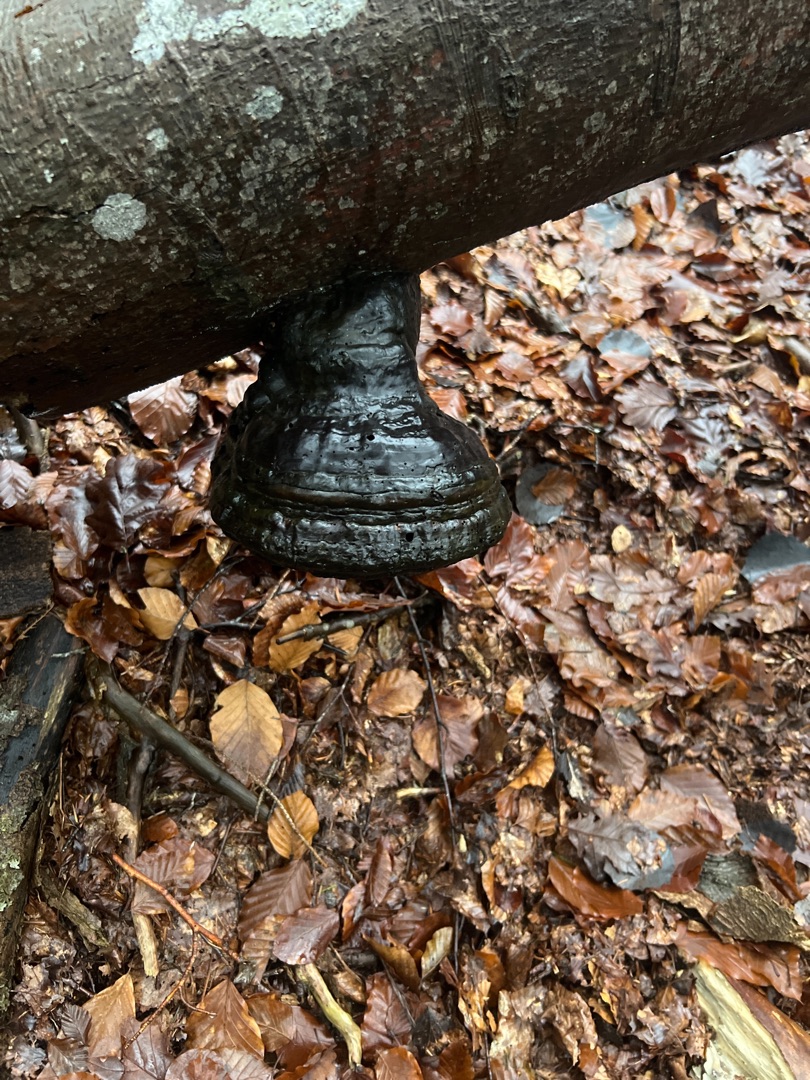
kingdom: Fungi
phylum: Basidiomycota
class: Agaricomycetes
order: Polyporales
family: Polyporaceae
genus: Fomes
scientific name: Fomes fomentarius
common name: Tøndersvamp
